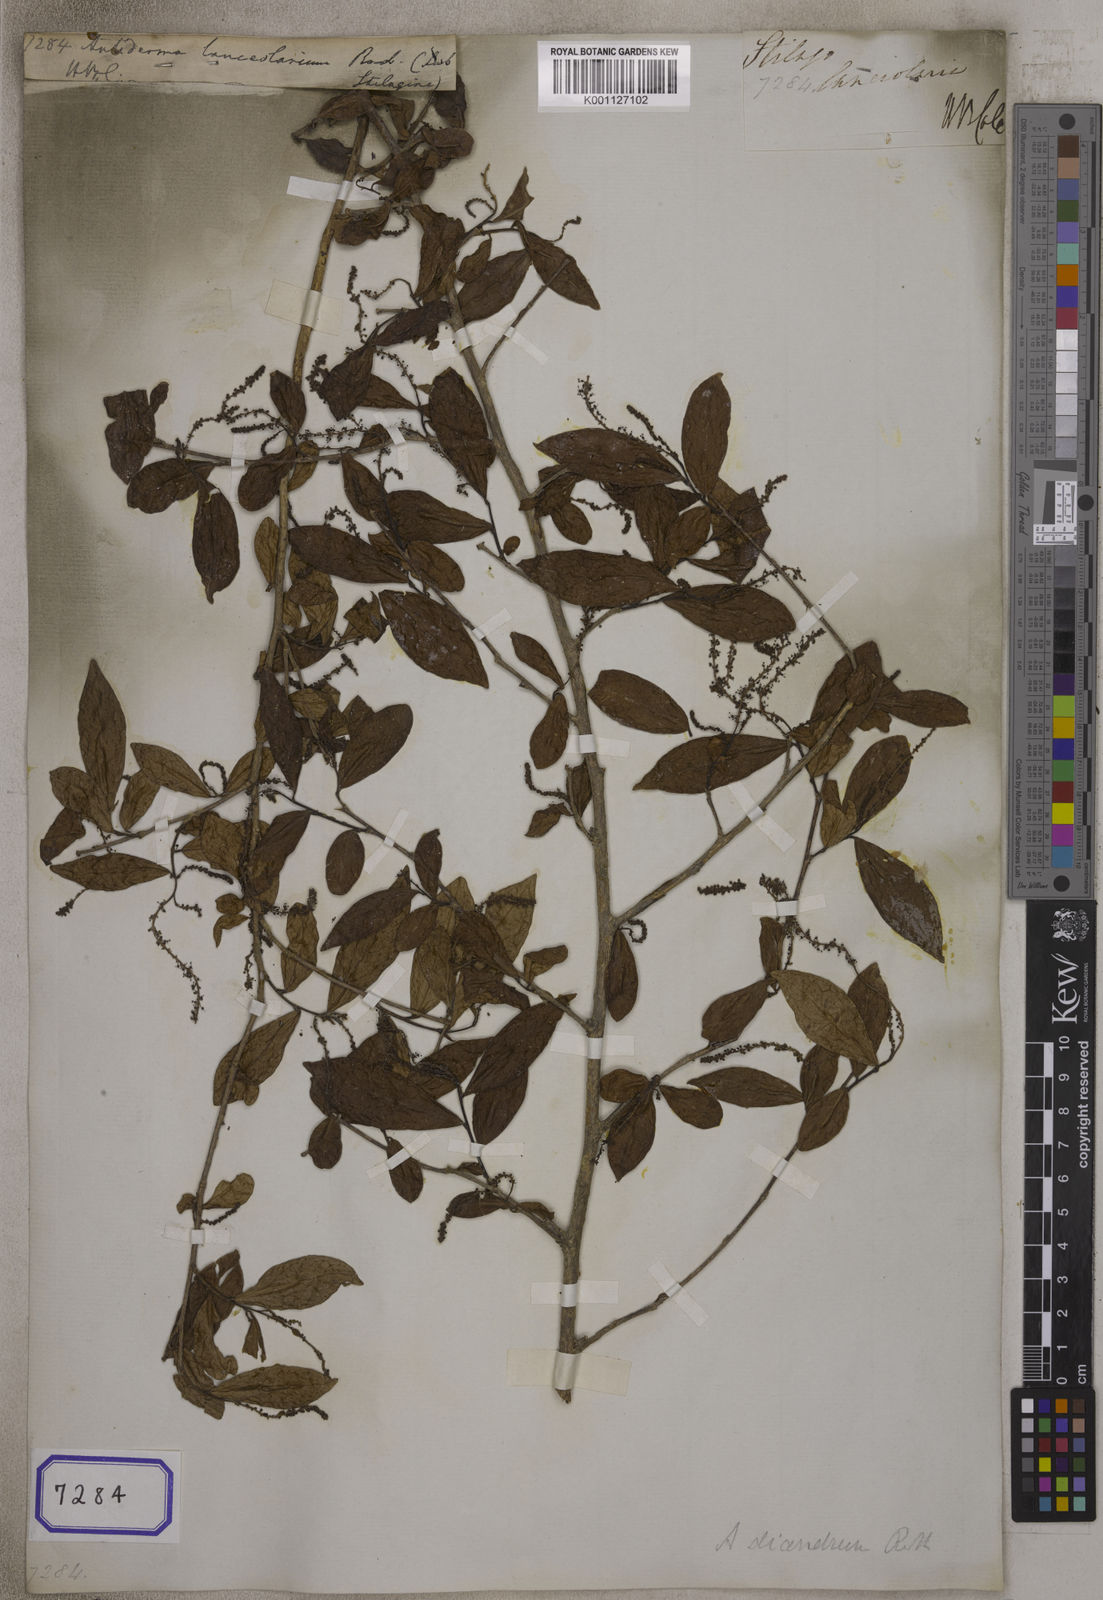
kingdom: Plantae
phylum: Tracheophyta
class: Magnoliopsida
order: Malpighiales
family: Phyllanthaceae
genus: Antidesma
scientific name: Antidesma acidum
